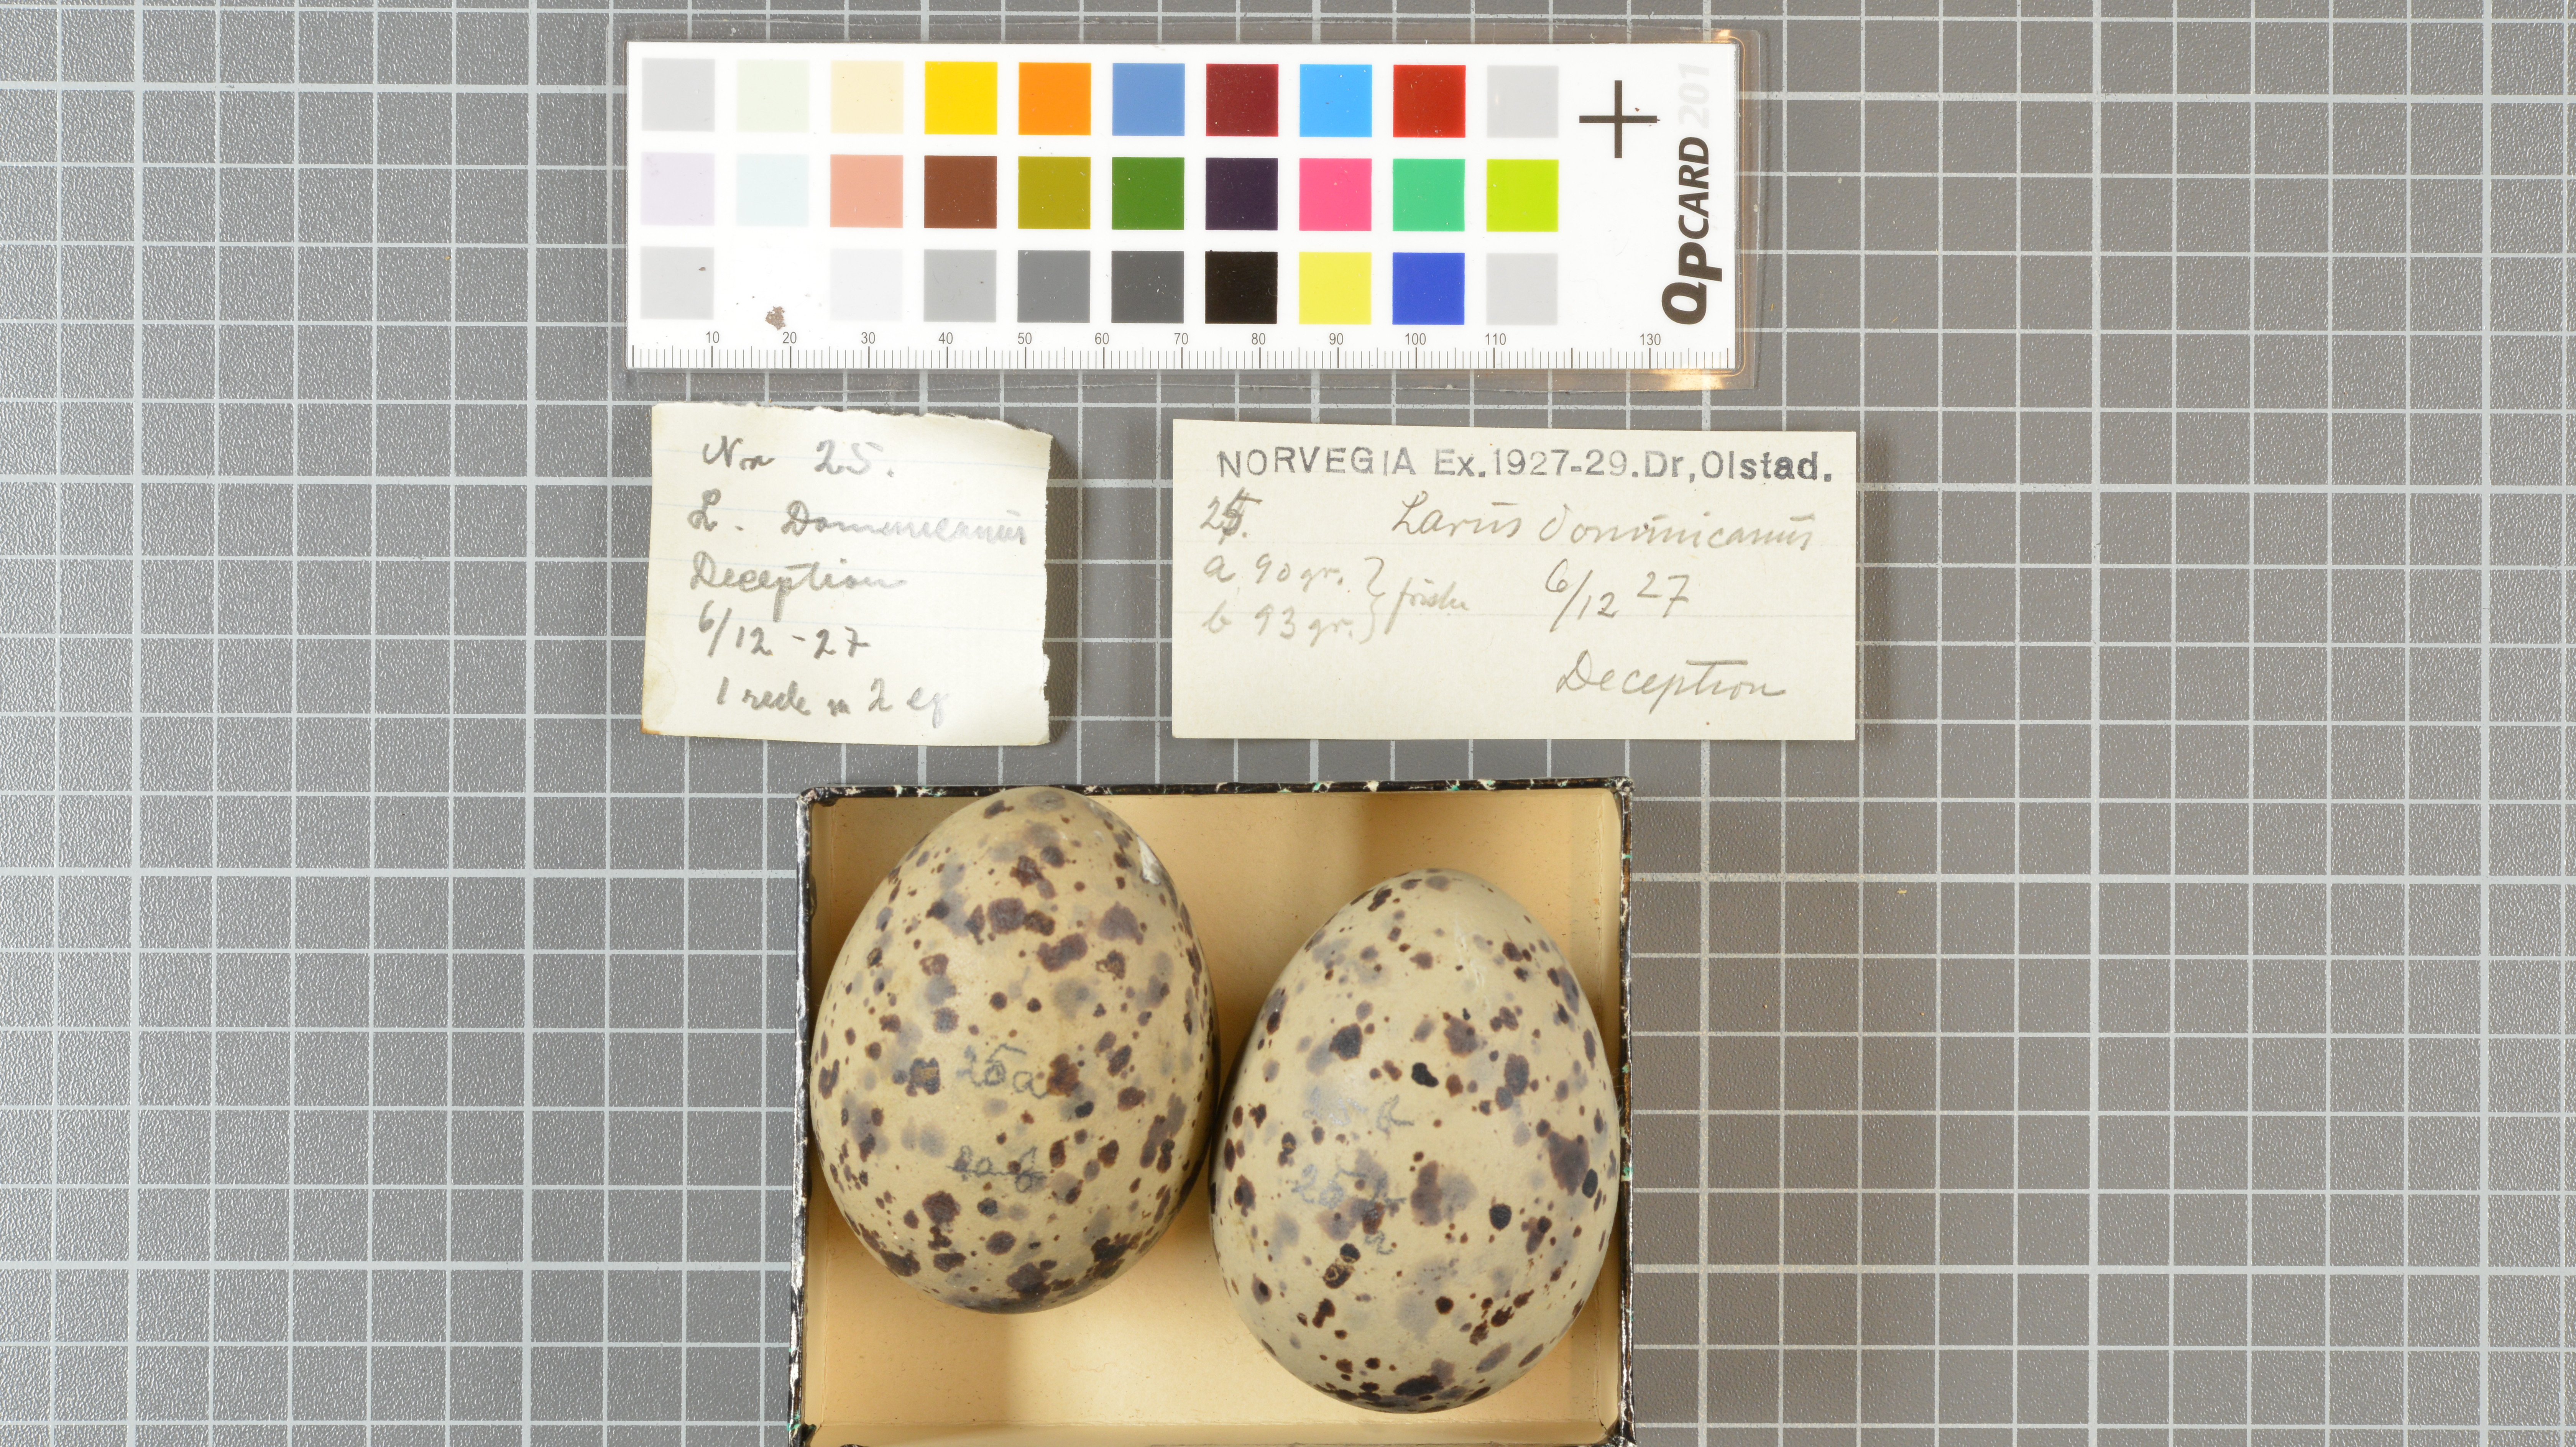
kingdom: Animalia
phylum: Chordata
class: Aves
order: Charadriiformes
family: Laridae
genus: Larus
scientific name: Larus dominicanus
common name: Kelp gull
